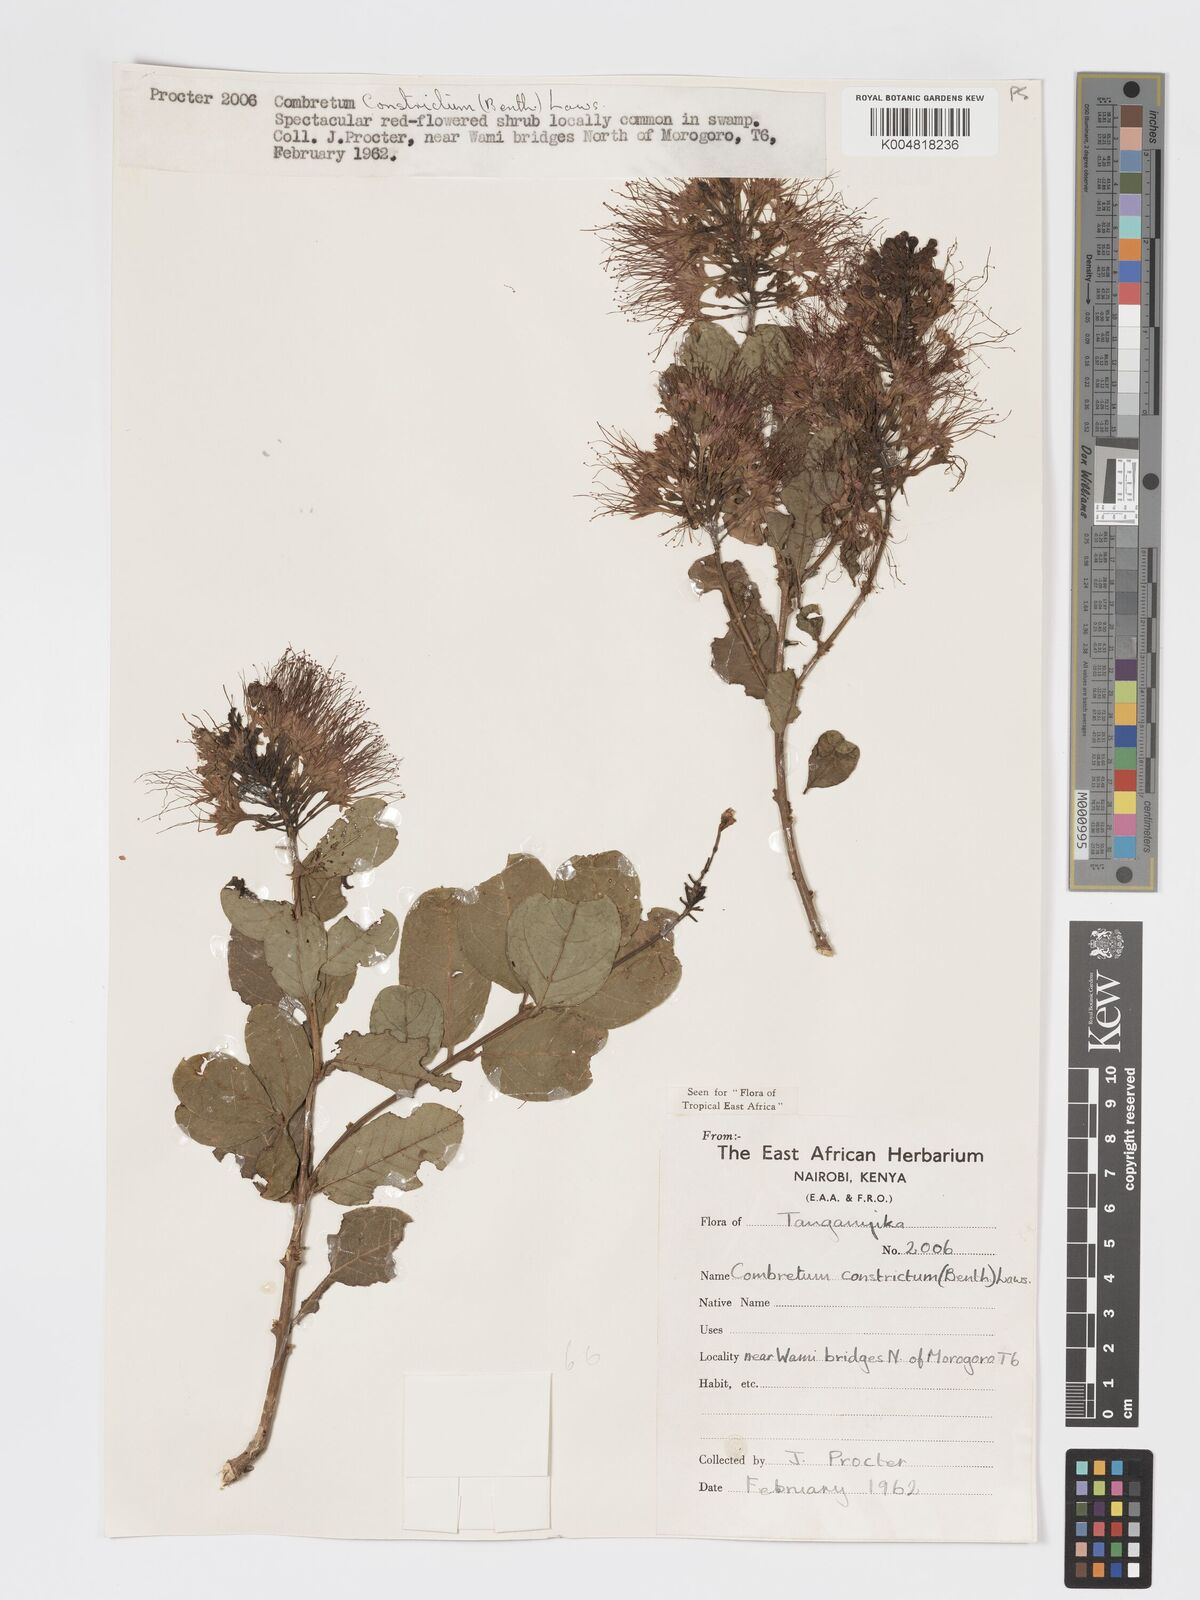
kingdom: Plantae
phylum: Tracheophyta
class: Magnoliopsida
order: Myrtales
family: Combretaceae
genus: Combretum
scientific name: Combretum constrictum
